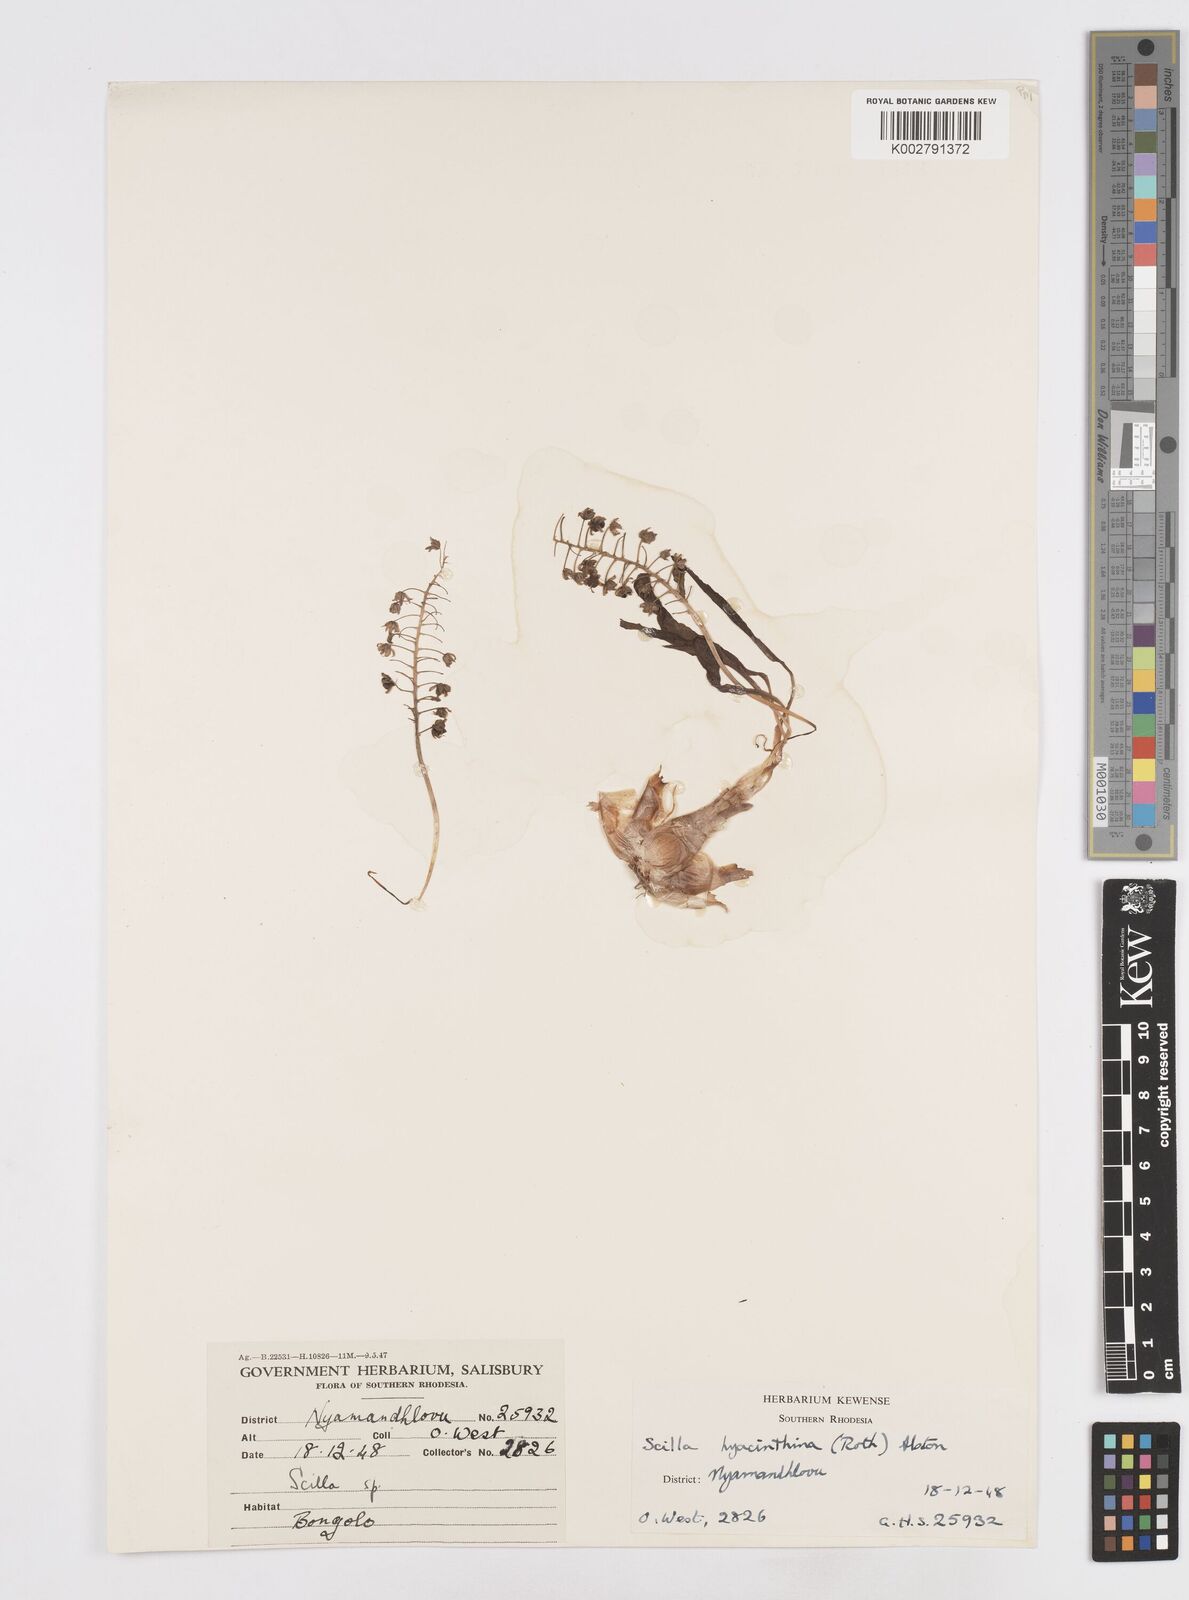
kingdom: Plantae
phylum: Tracheophyta
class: Liliopsida
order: Asparagales
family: Asparagaceae
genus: Ledebouria
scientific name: Ledebouria revoluta
